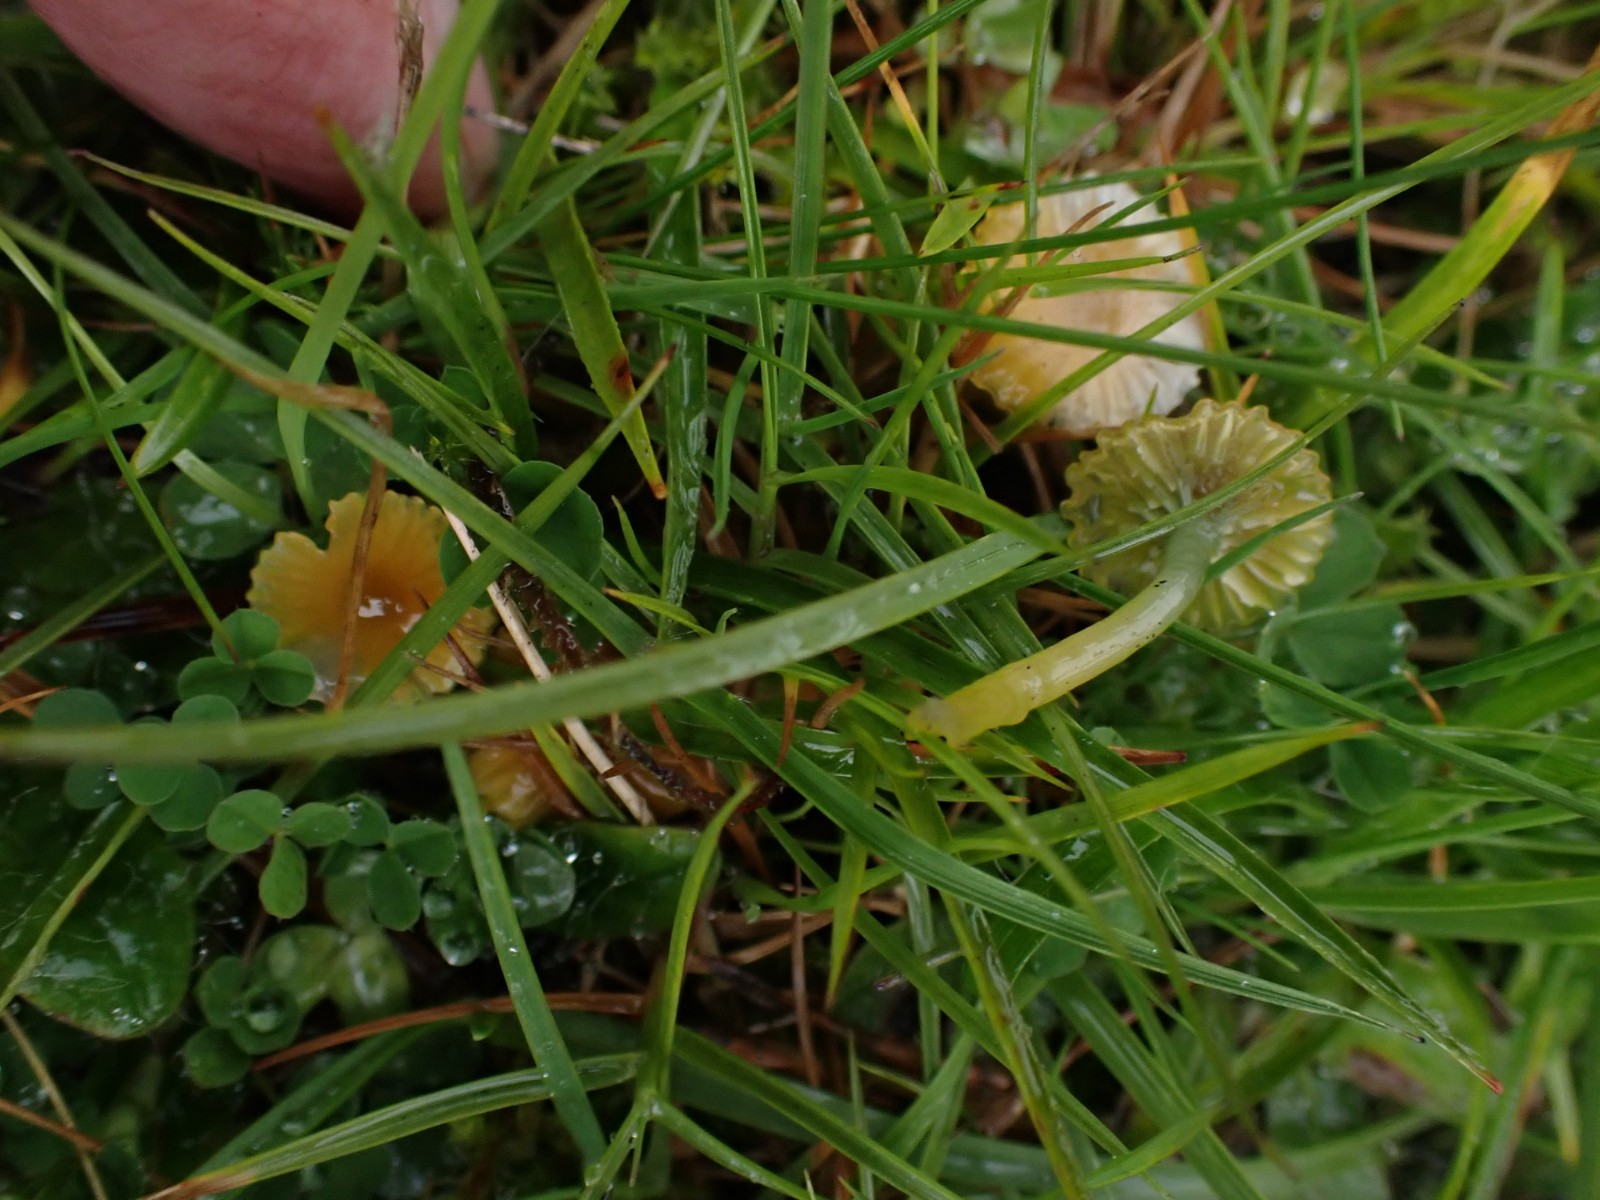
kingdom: Fungi
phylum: Basidiomycota
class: Agaricomycetes
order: Agaricales
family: Hygrophoraceae
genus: Gliophorus
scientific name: Gliophorus psittacinus
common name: papegøje-vokshat
